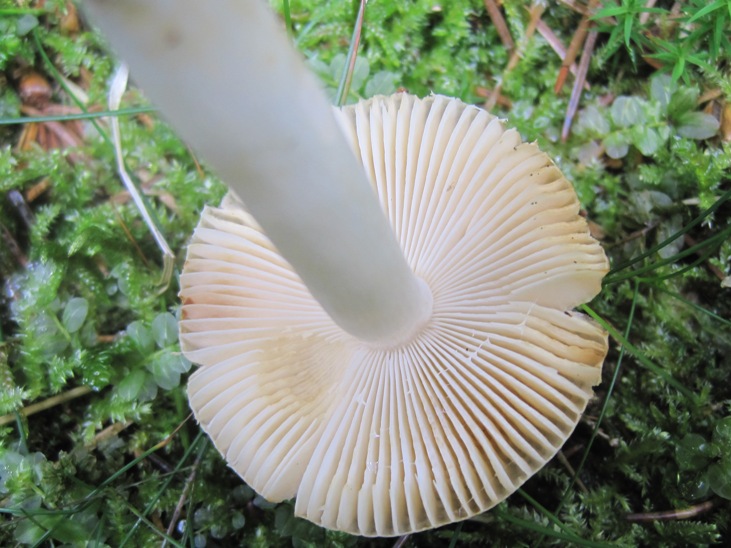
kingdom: Fungi
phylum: Basidiomycota
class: Agaricomycetes
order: Russulales
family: Russulaceae
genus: Russula
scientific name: Russula nauseosa
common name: spinkel skørhat
